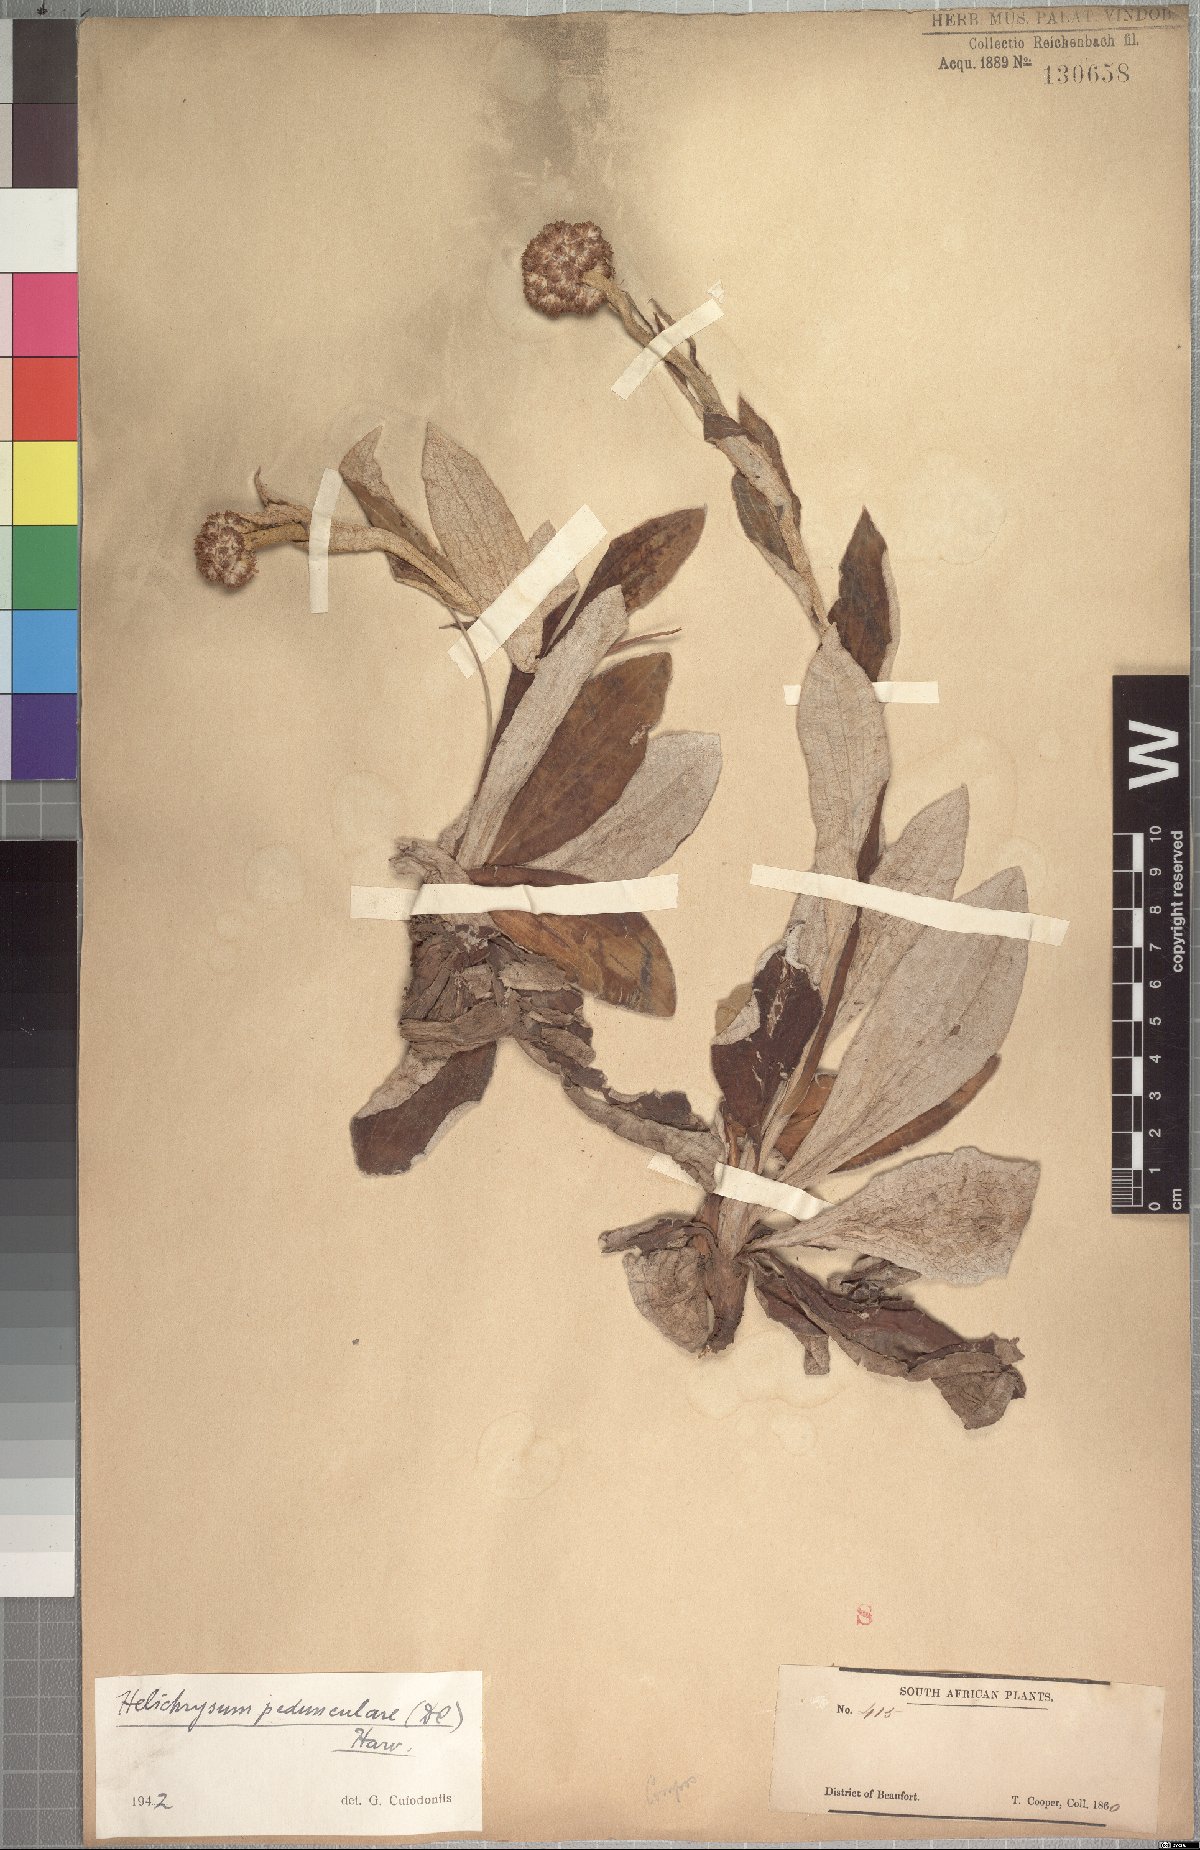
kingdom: Plantae
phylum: Tracheophyta
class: Magnoliopsida
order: Asterales
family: Asteraceae
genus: Helichrysum
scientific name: Helichrysum pedunculatum
